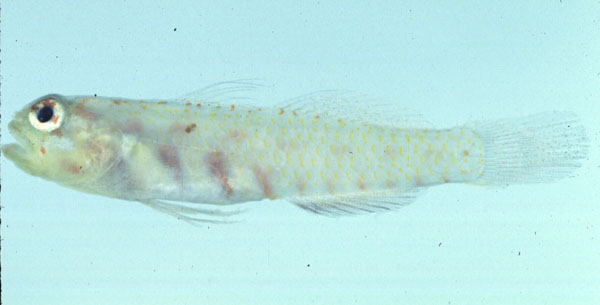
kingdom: Animalia
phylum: Chordata
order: Perciformes
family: Gobiidae
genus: Eviota
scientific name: Eviota albolineata
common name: Spotted fringefin goby
